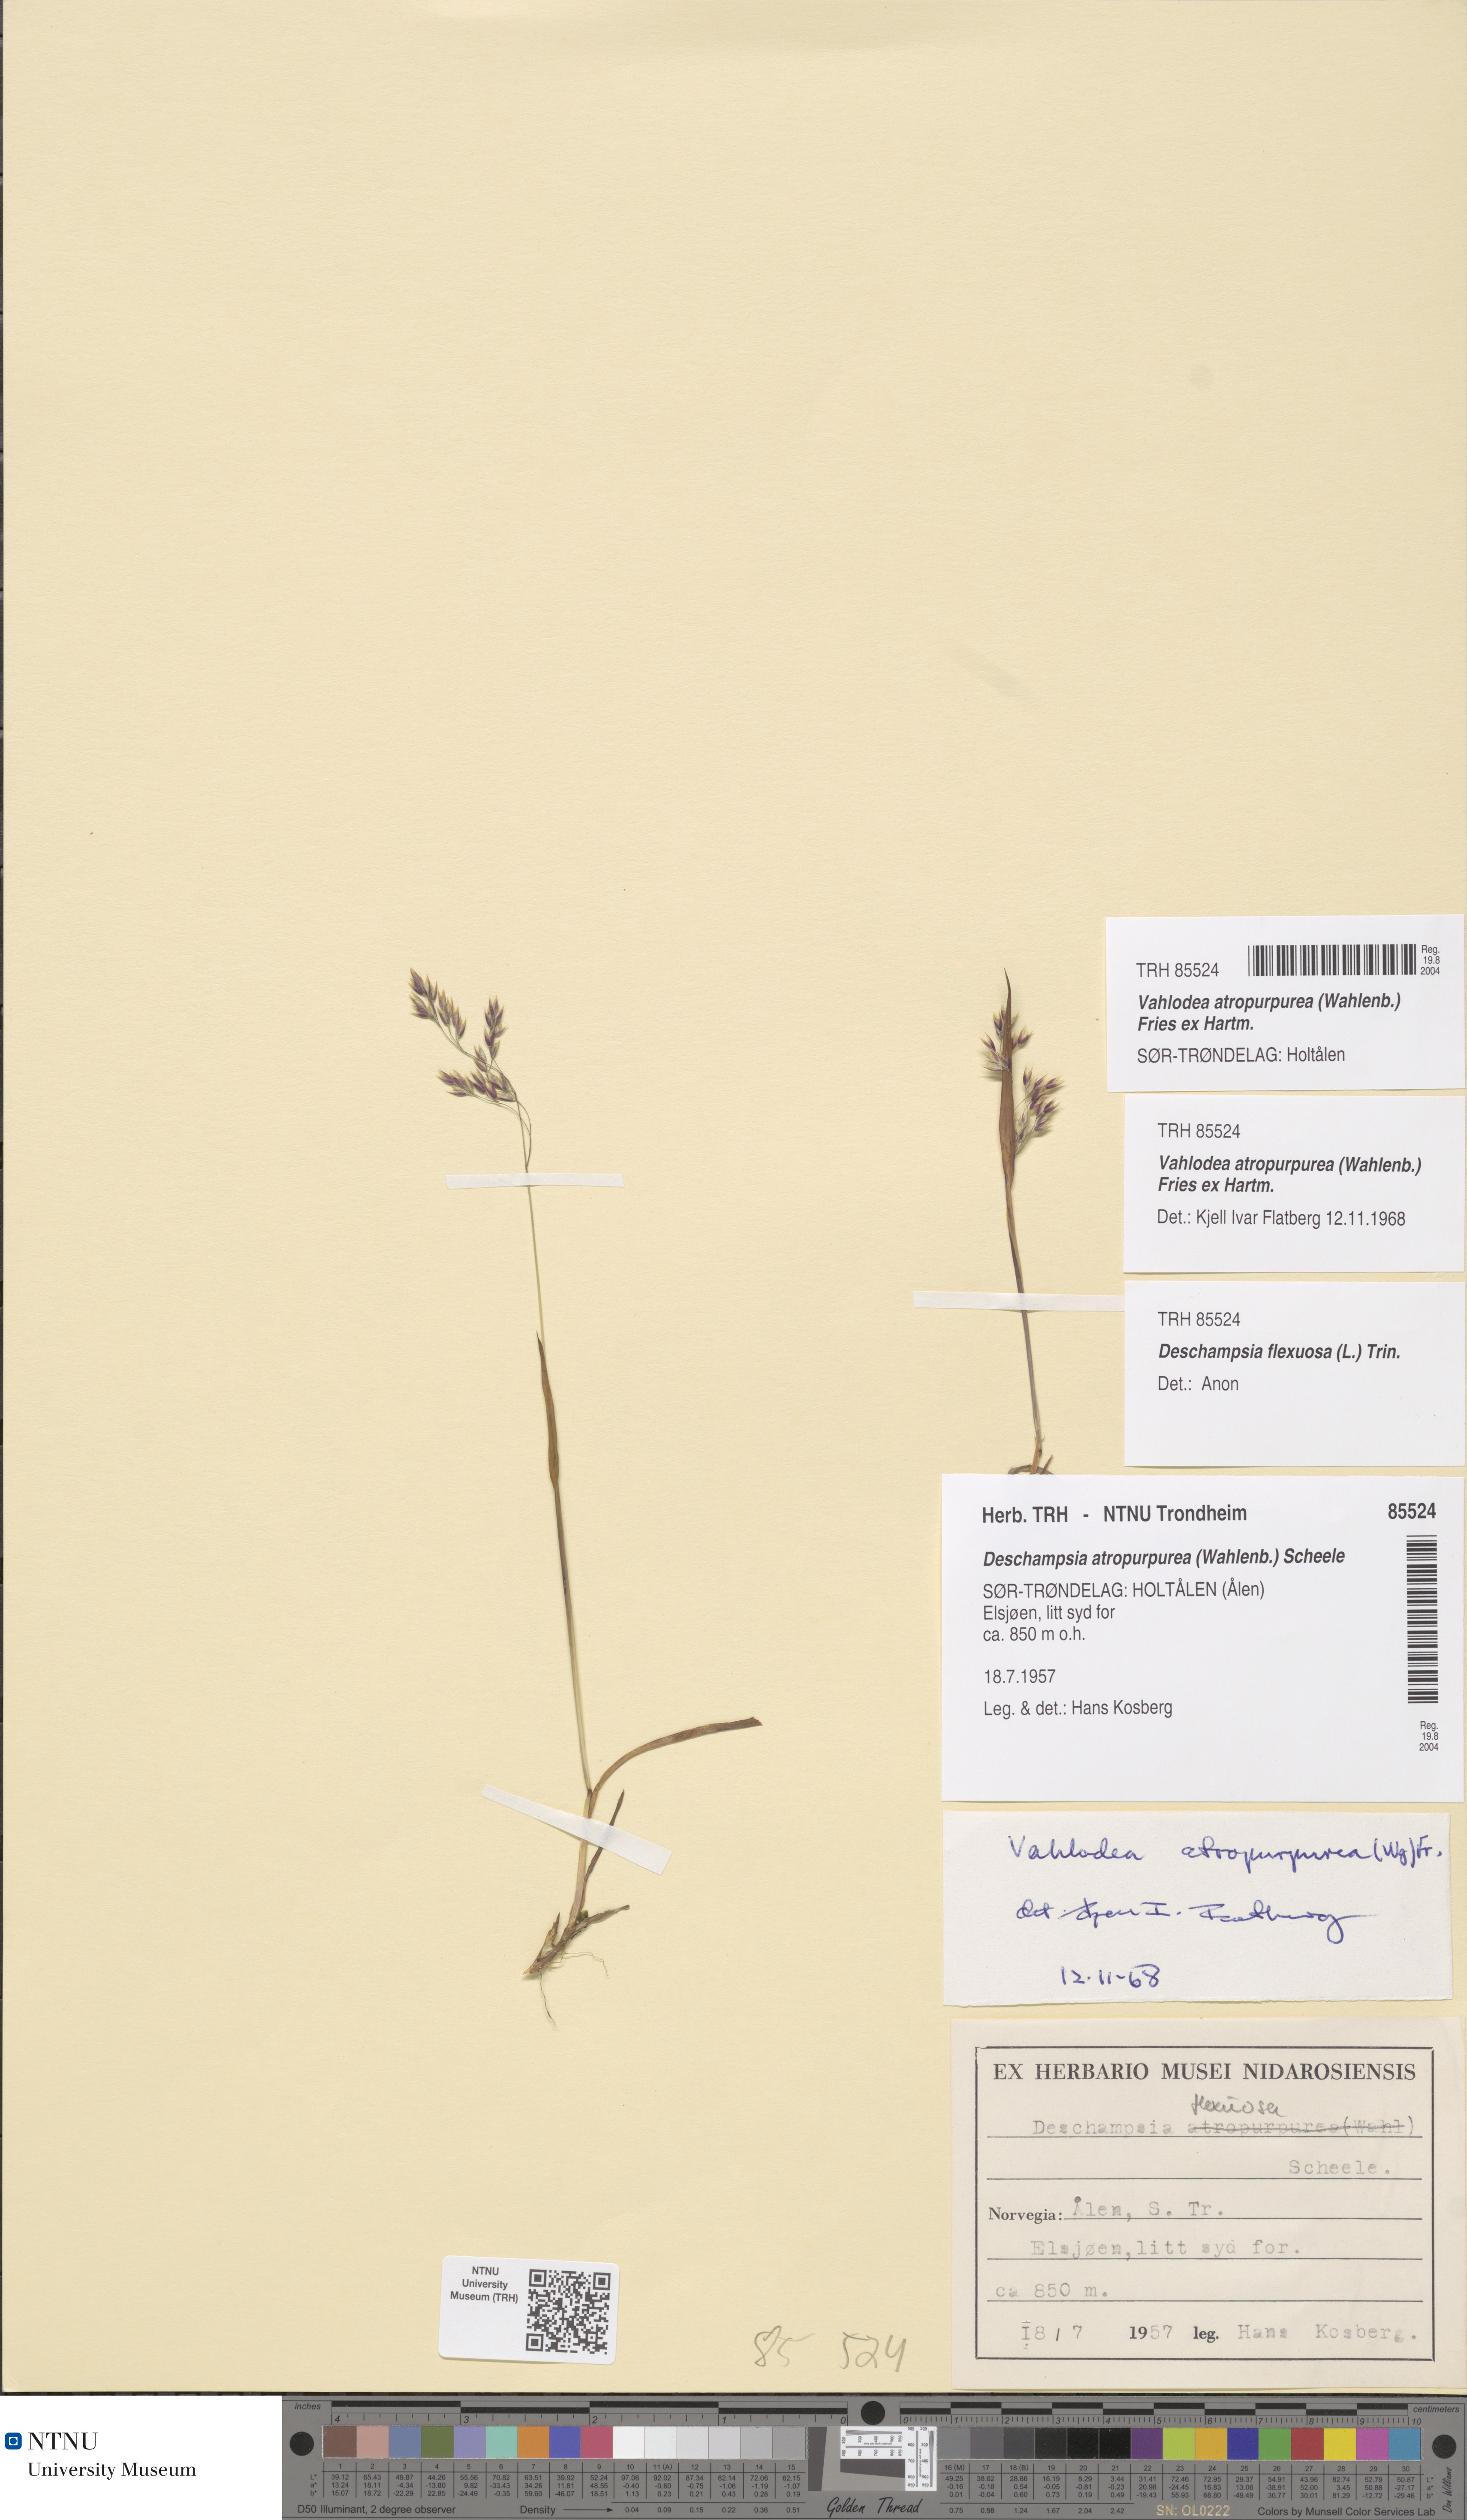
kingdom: Plantae
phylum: Tracheophyta
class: Liliopsida
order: Poales
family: Poaceae
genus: Vahlodea
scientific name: Vahlodea atropurpurea
